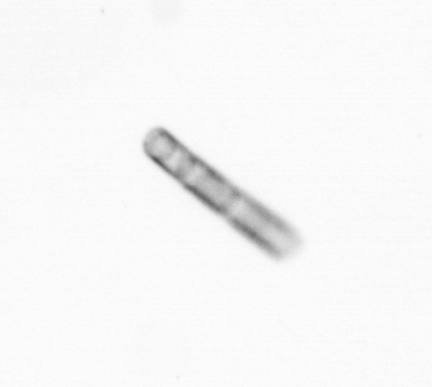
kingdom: Chromista
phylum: Ochrophyta
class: Bacillariophyceae
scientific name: Bacillariophyceae
